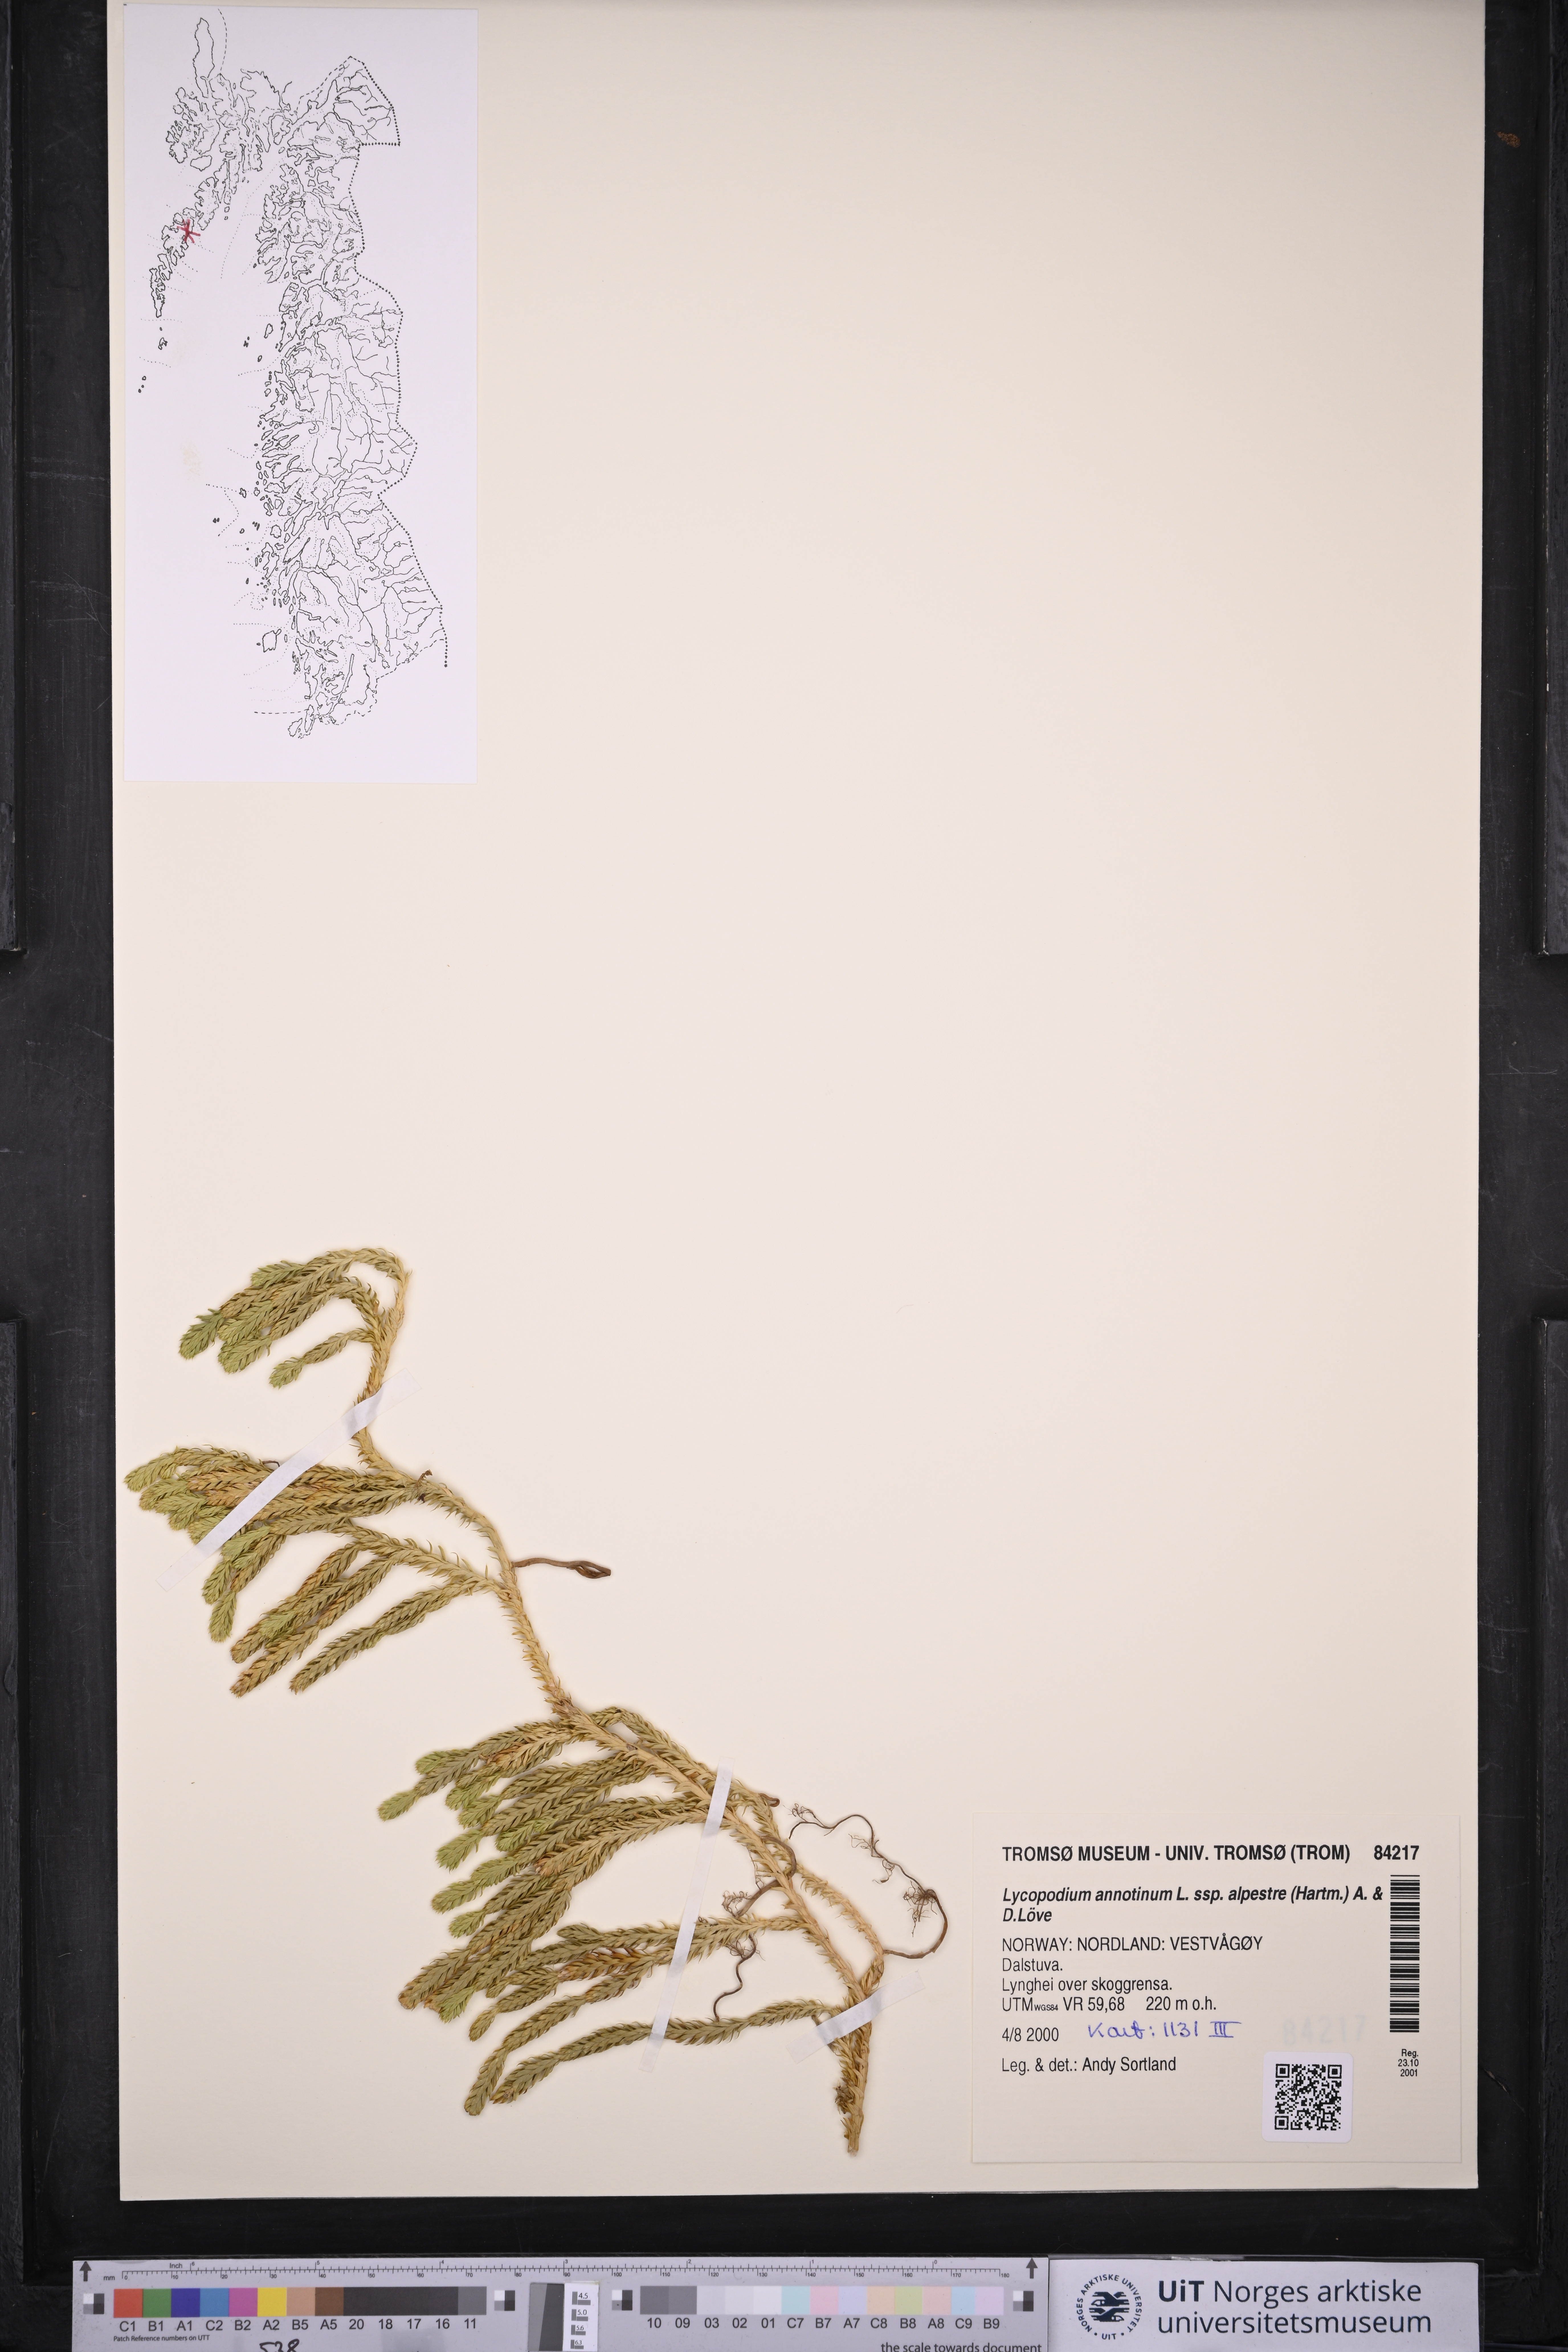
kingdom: Plantae
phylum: Tracheophyta
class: Lycopodiopsida
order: Lycopodiales
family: Lycopodiaceae
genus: Spinulum
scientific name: Spinulum annotinum
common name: Interrupted club-moss
